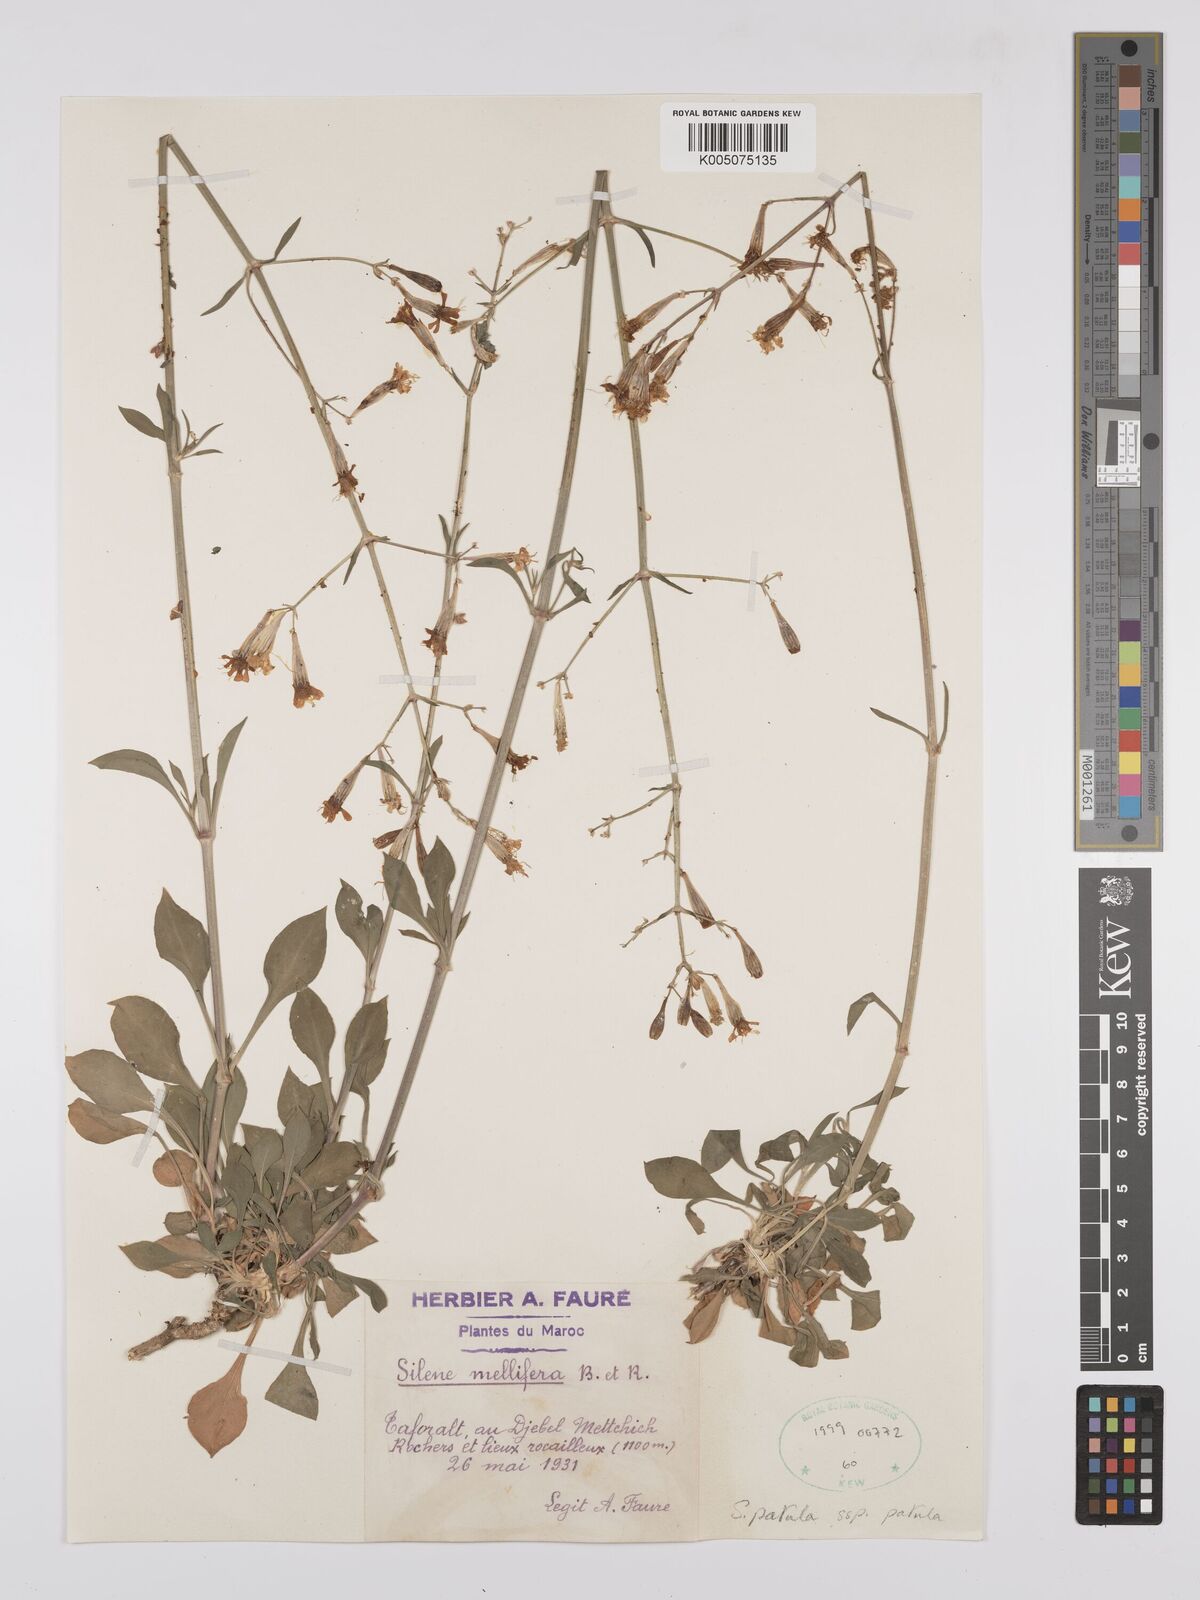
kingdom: Plantae
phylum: Tracheophyta
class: Magnoliopsida
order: Caryophyllales
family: Caryophyllaceae
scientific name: Caryophyllaceae
